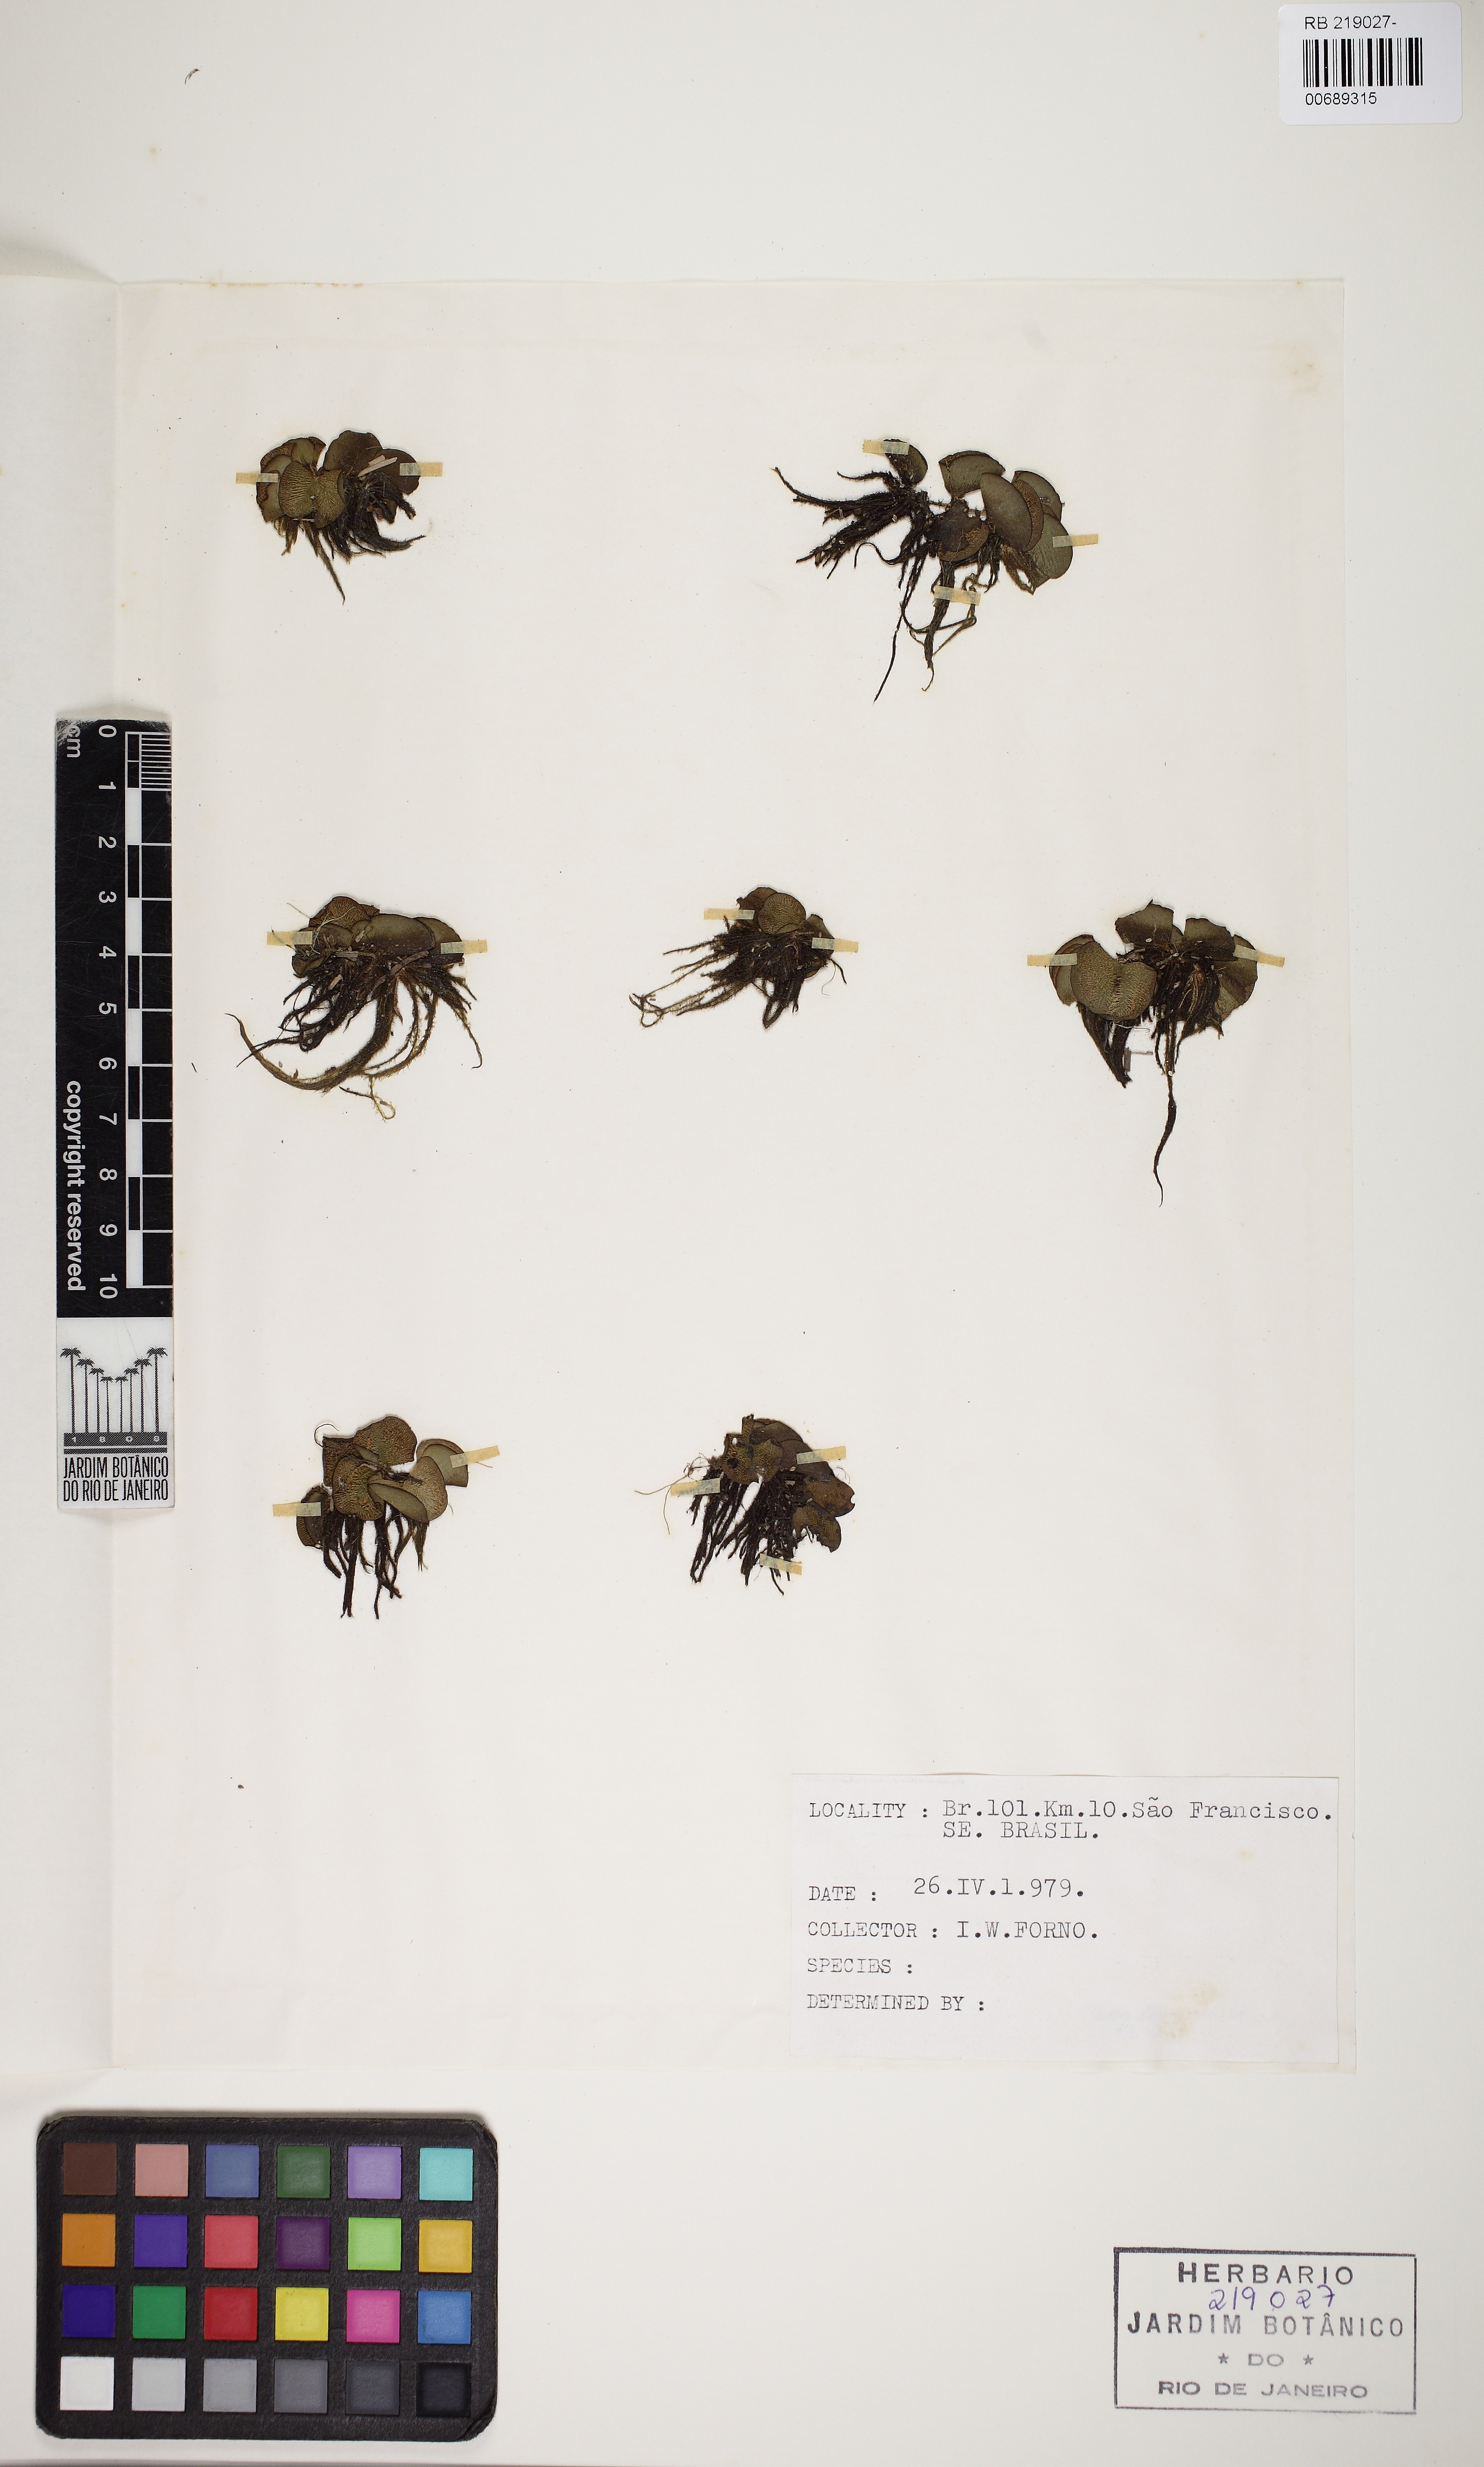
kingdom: Plantae
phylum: Tracheophyta
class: Polypodiopsida
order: Salviniales
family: Salviniaceae
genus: Salvinia
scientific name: Salvinia
